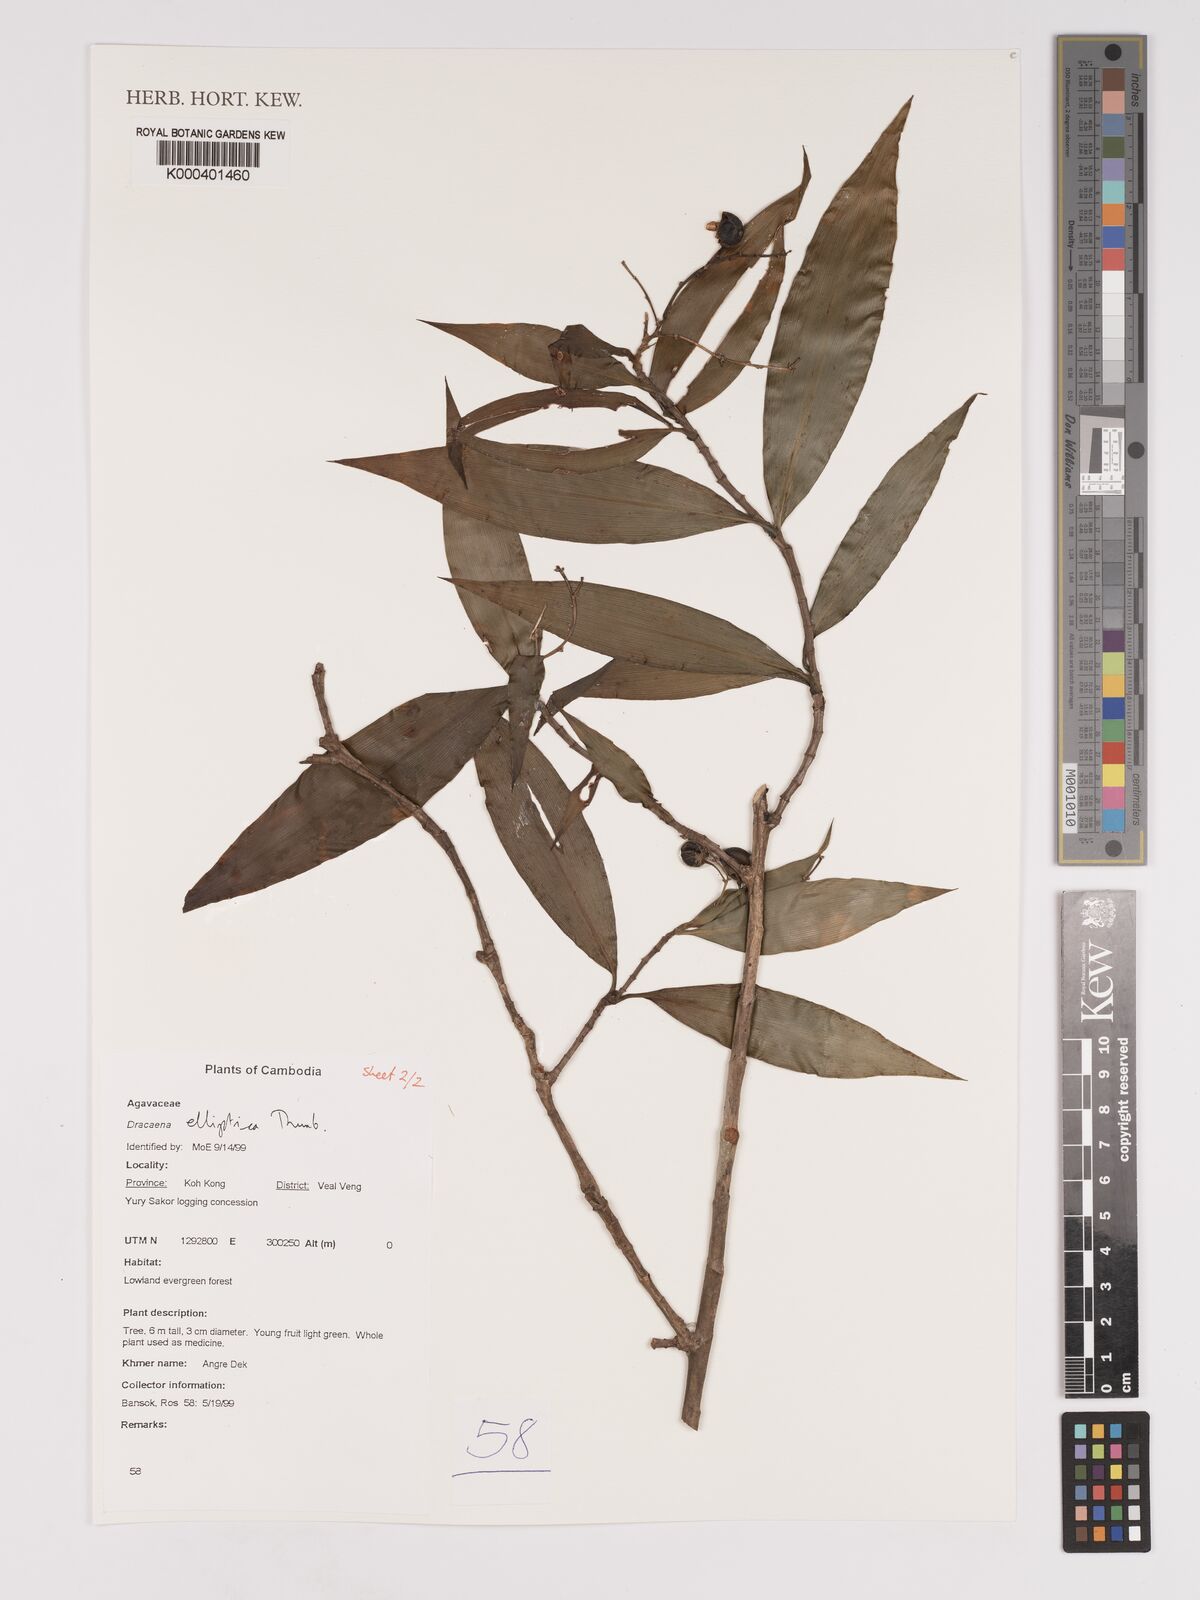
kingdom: Plantae
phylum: Tracheophyta
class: Liliopsida
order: Asparagales
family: Asparagaceae
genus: Dracaena
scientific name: Dracaena elliptica
